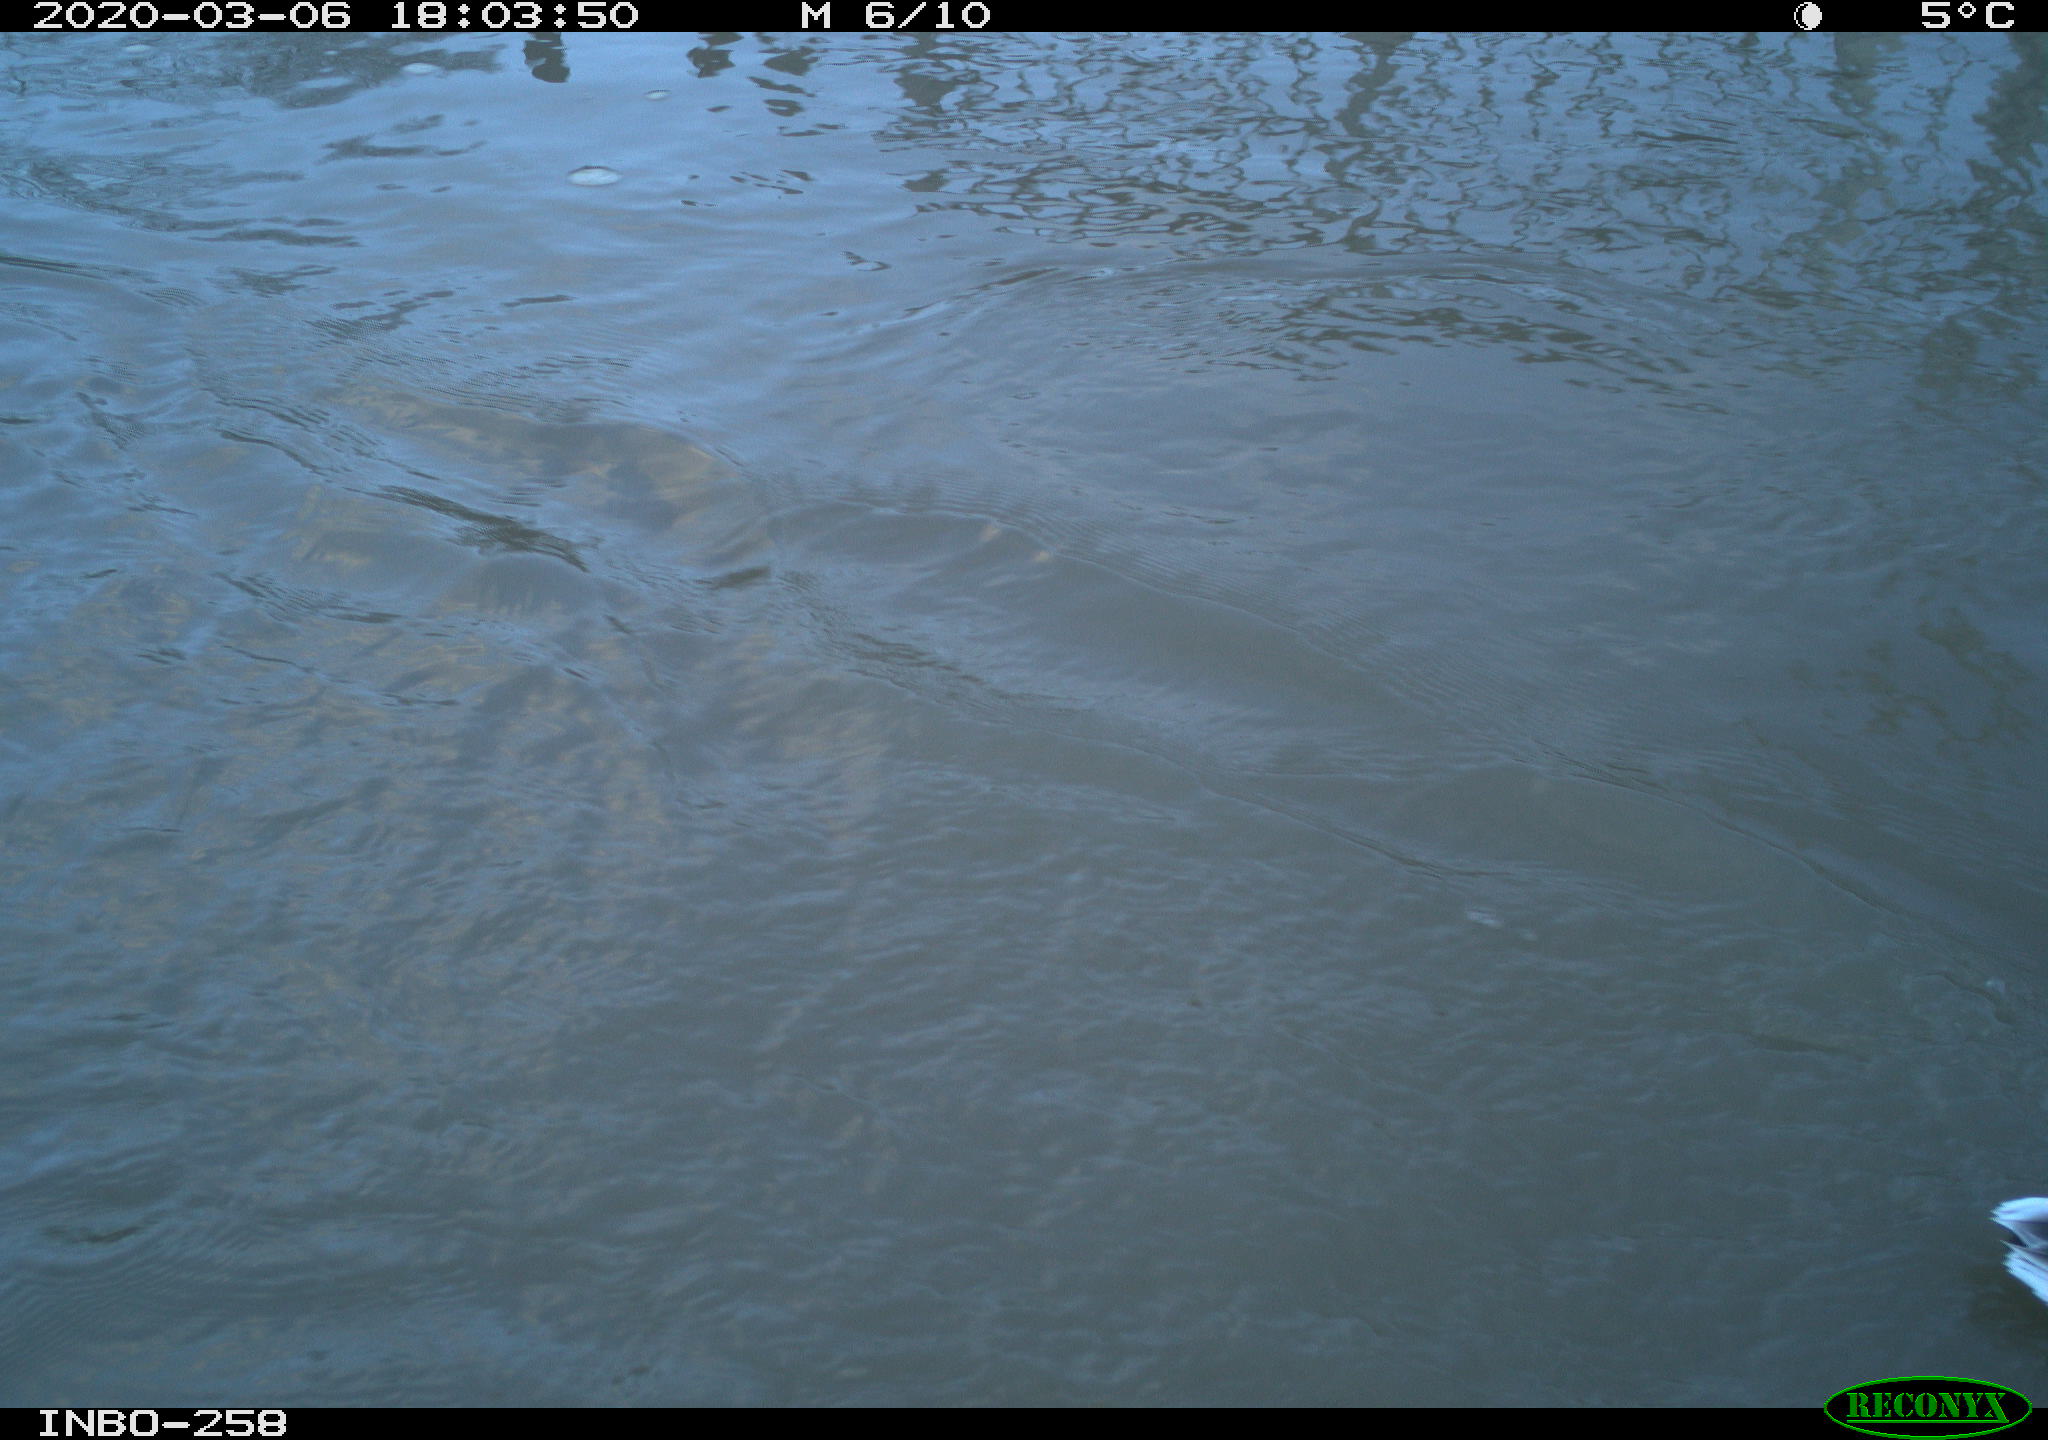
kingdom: Animalia
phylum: Chordata
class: Aves
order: Anseriformes
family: Anatidae
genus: Anas
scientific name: Anas platyrhynchos
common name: Mallard
